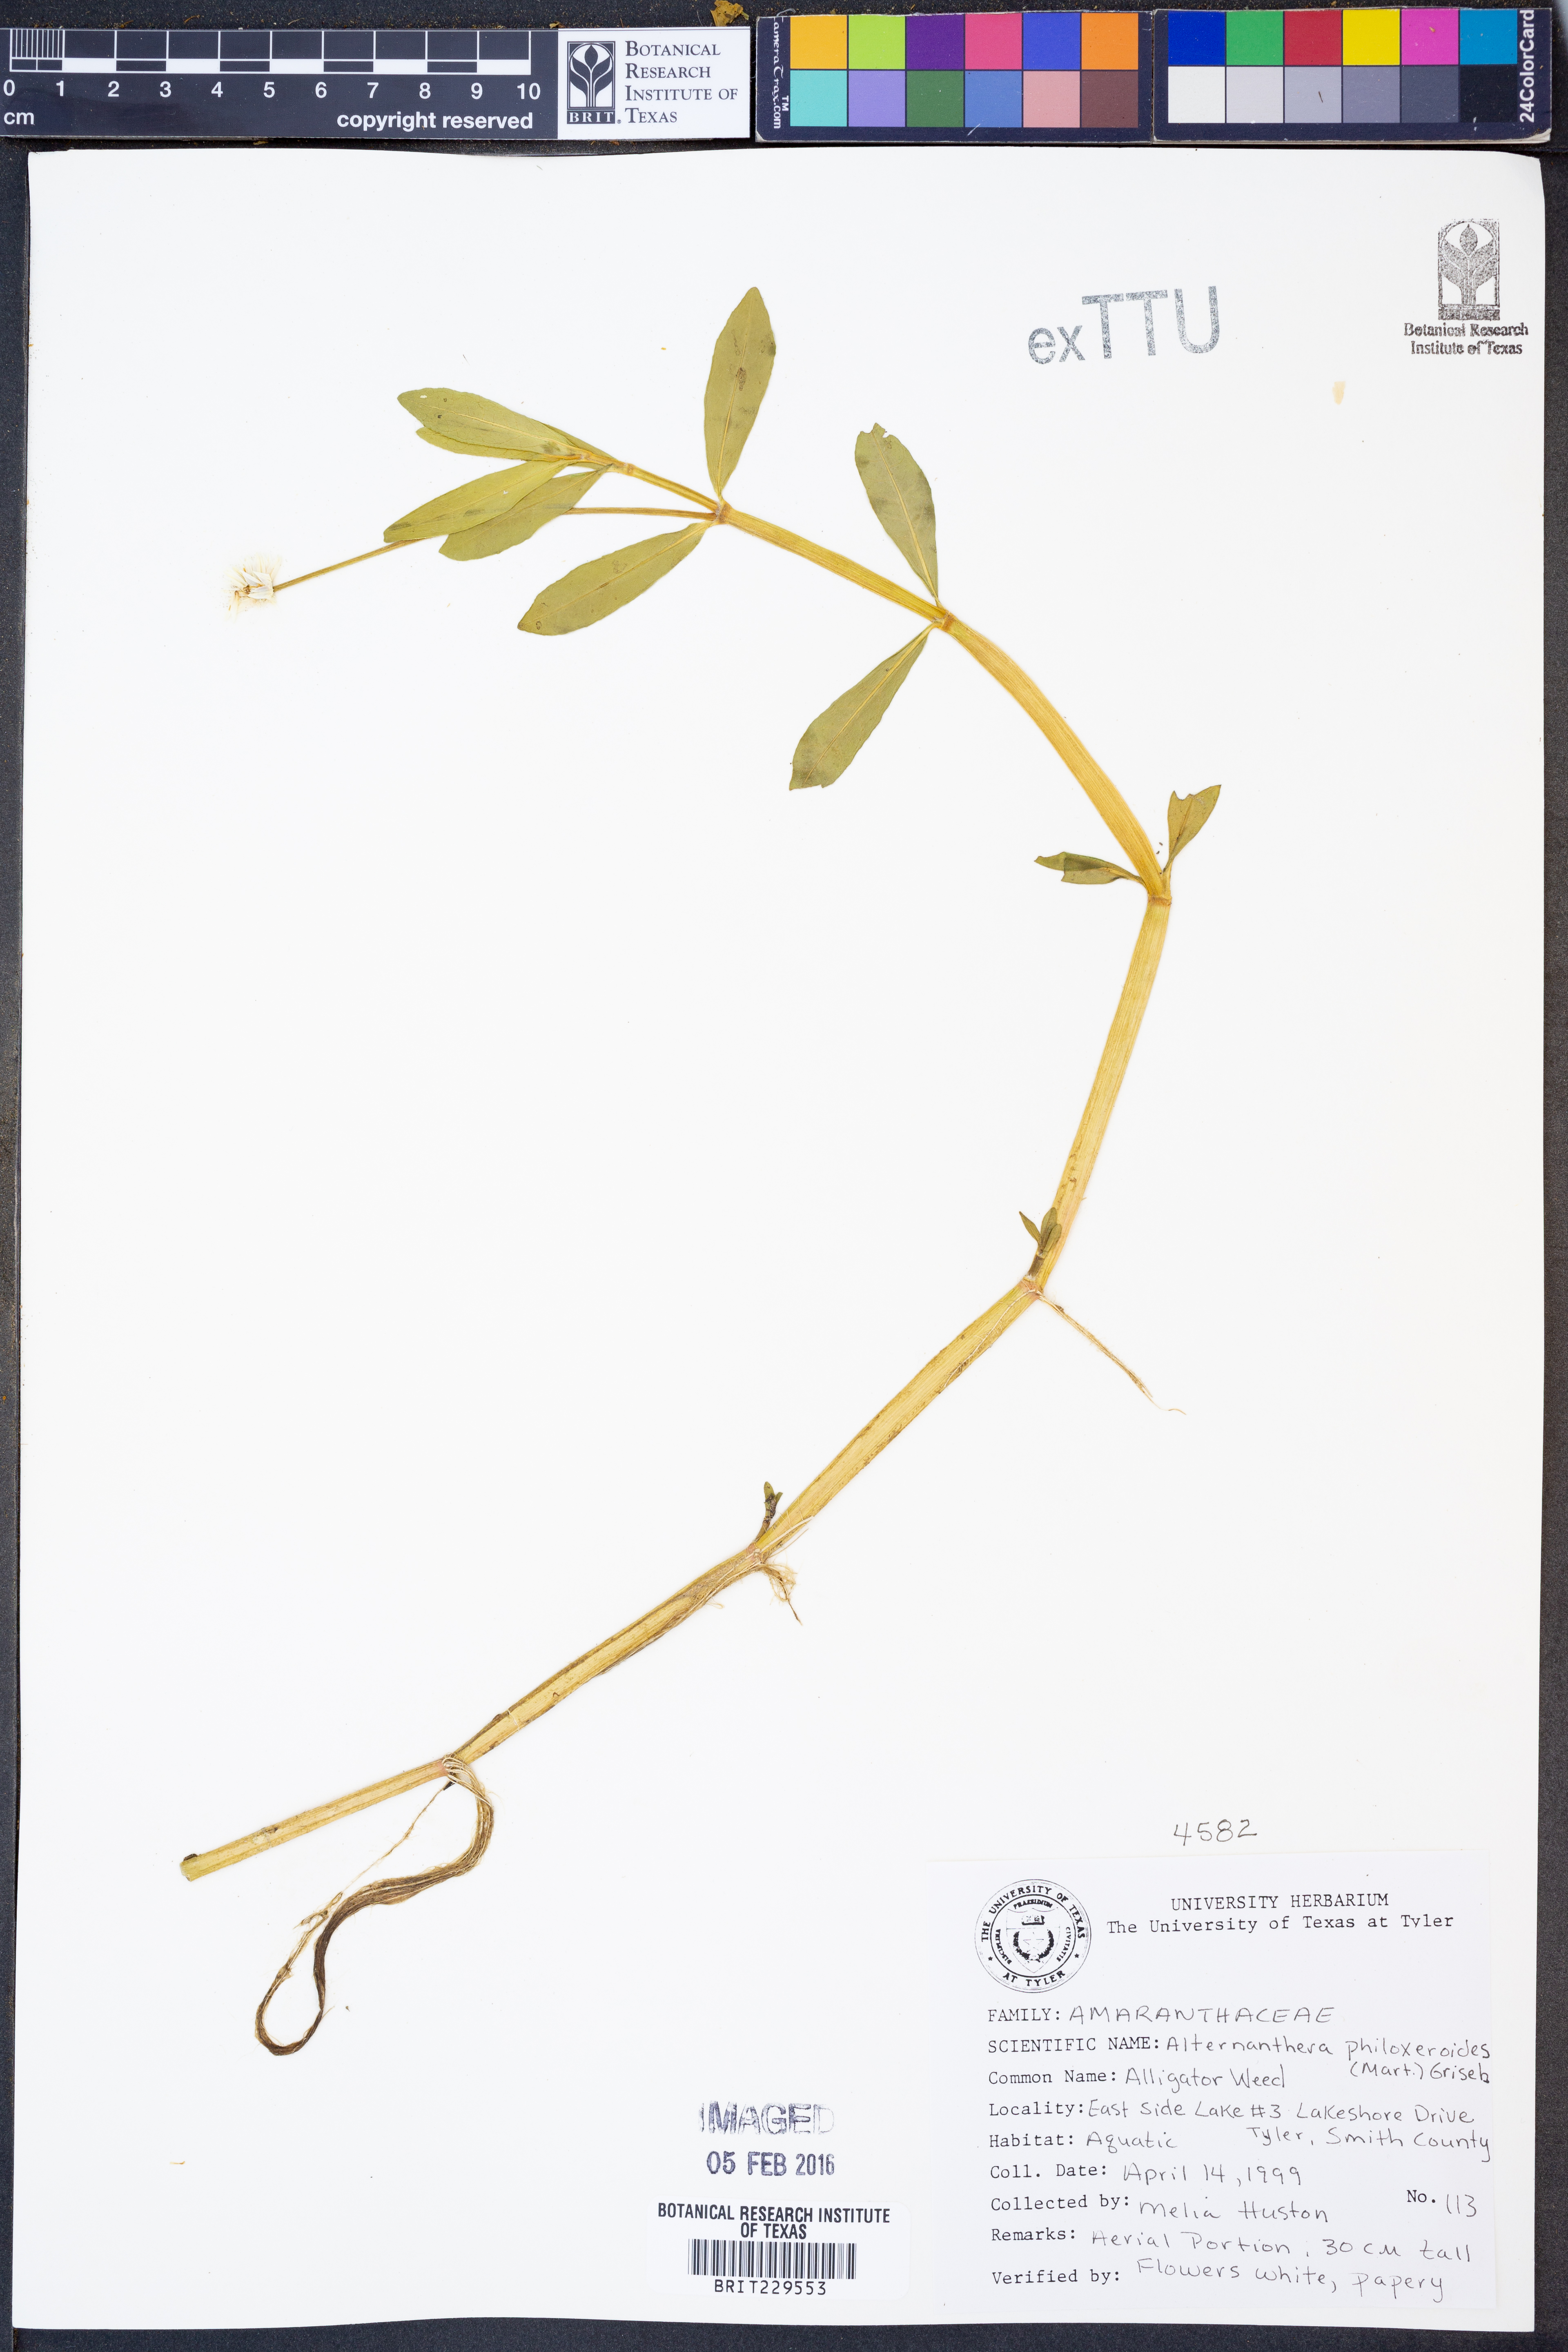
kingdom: Plantae
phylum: Tracheophyta
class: Magnoliopsida
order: Caryophyllales
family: Amaranthaceae
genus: Alternanthera
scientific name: Alternanthera philoxeroides
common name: Alligatorweed
